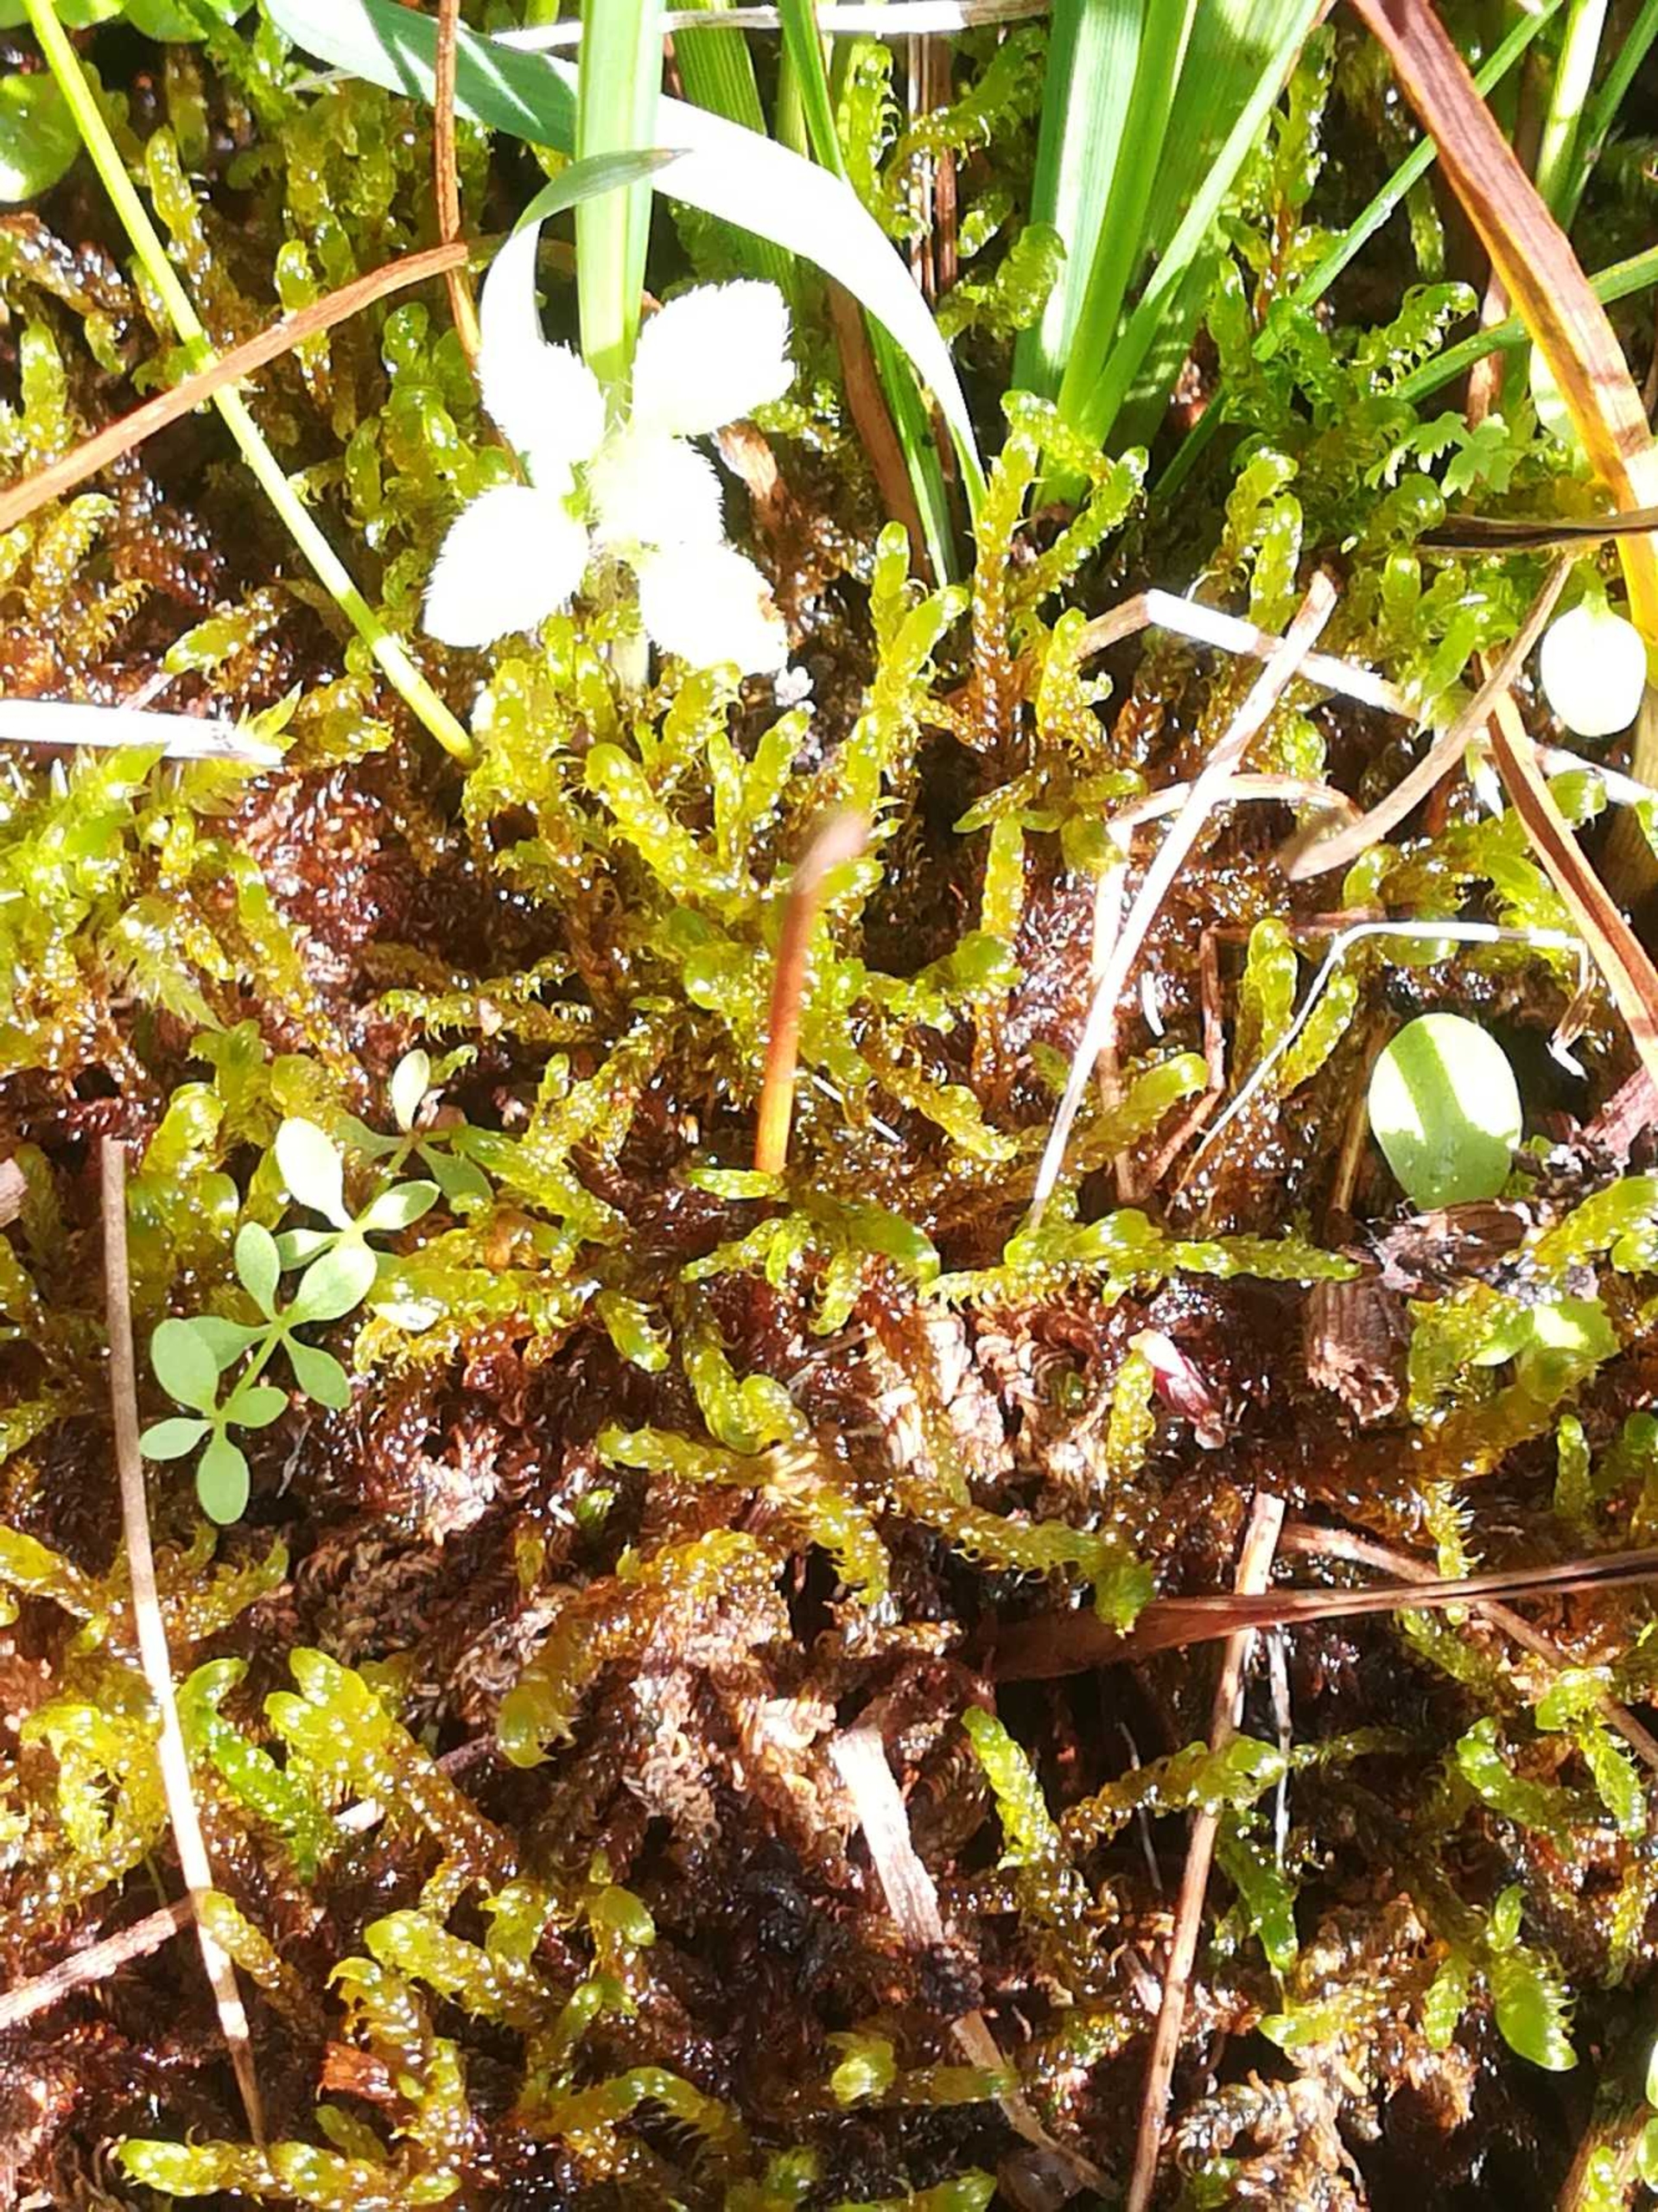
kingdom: Plantae
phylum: Bryophyta
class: Bryopsida
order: Hypnales
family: Scorpidiaceae
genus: Scorpidium
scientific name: Scorpidium cossonii
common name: Grøn krumblad
